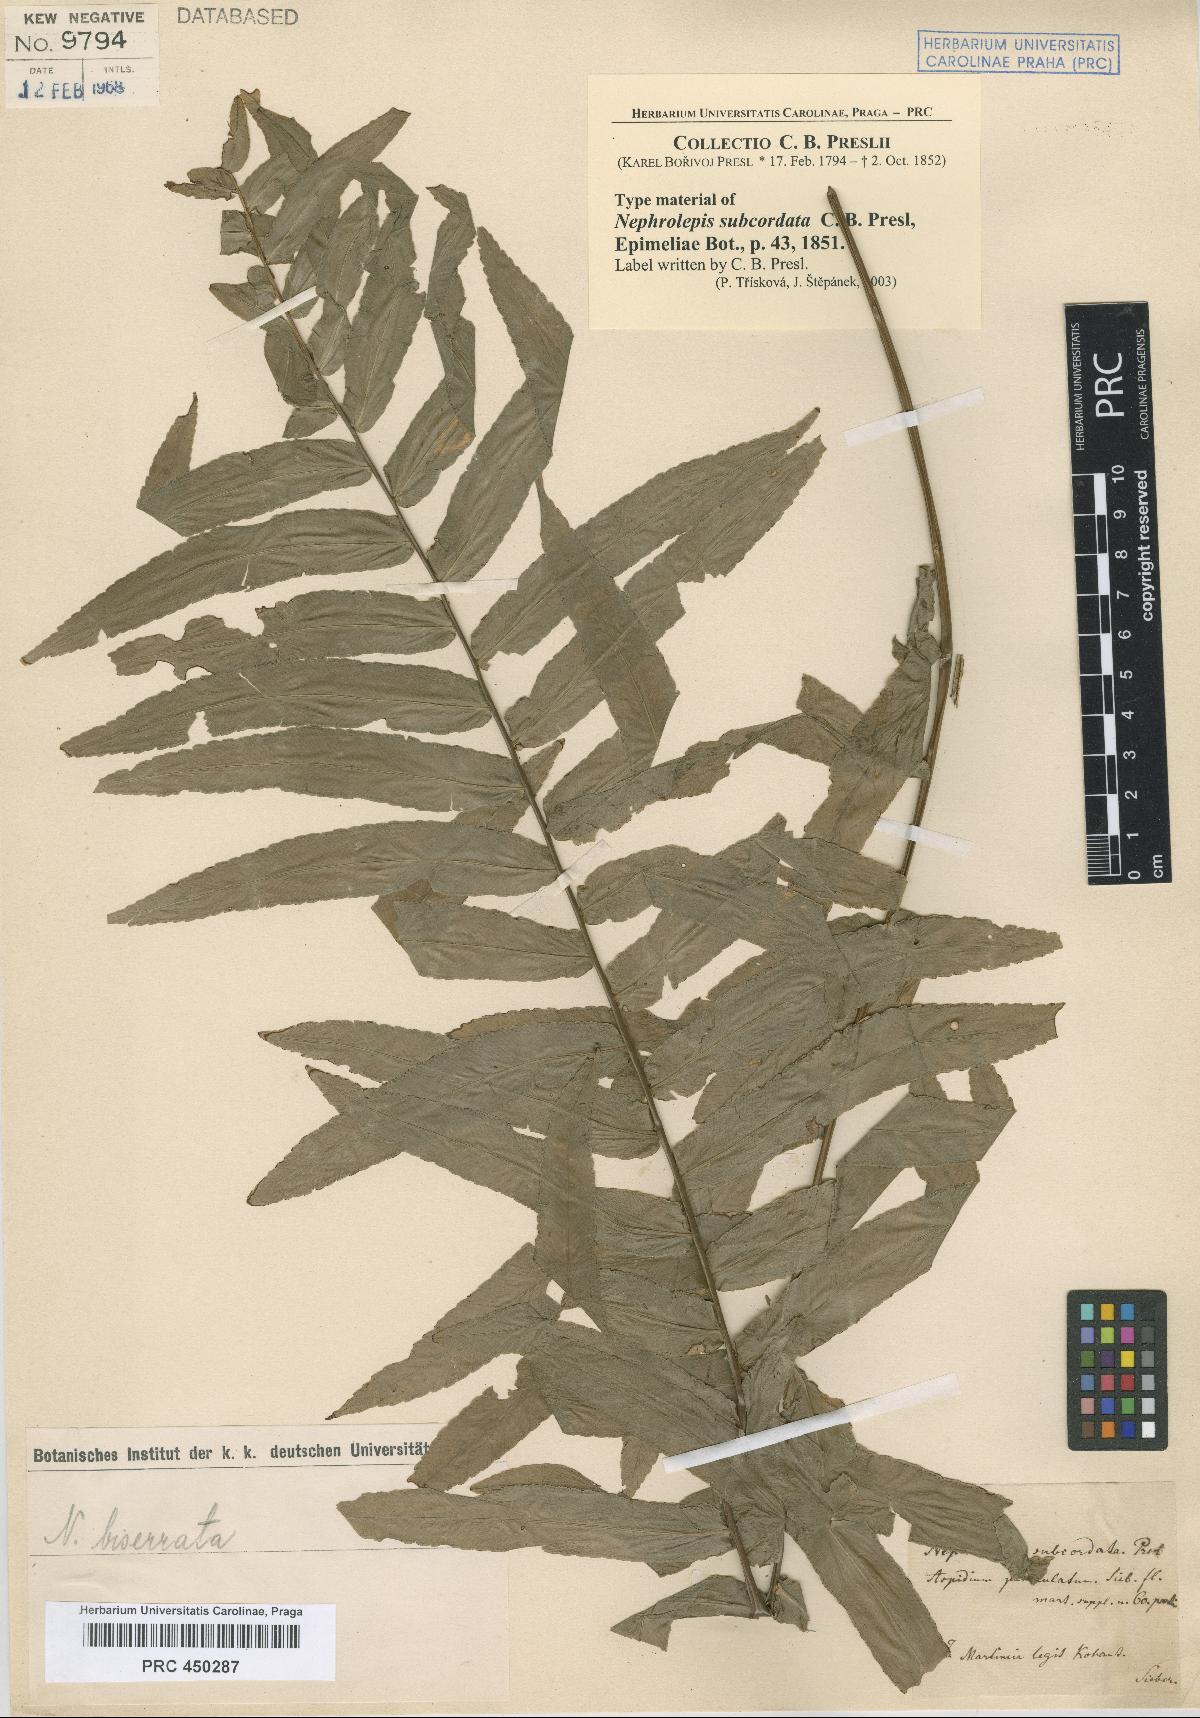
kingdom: Plantae
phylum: Tracheophyta
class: Polypodiopsida
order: Polypodiales
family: Nephrolepidaceae
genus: Nephrolepis
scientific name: Nephrolepis biserrata
